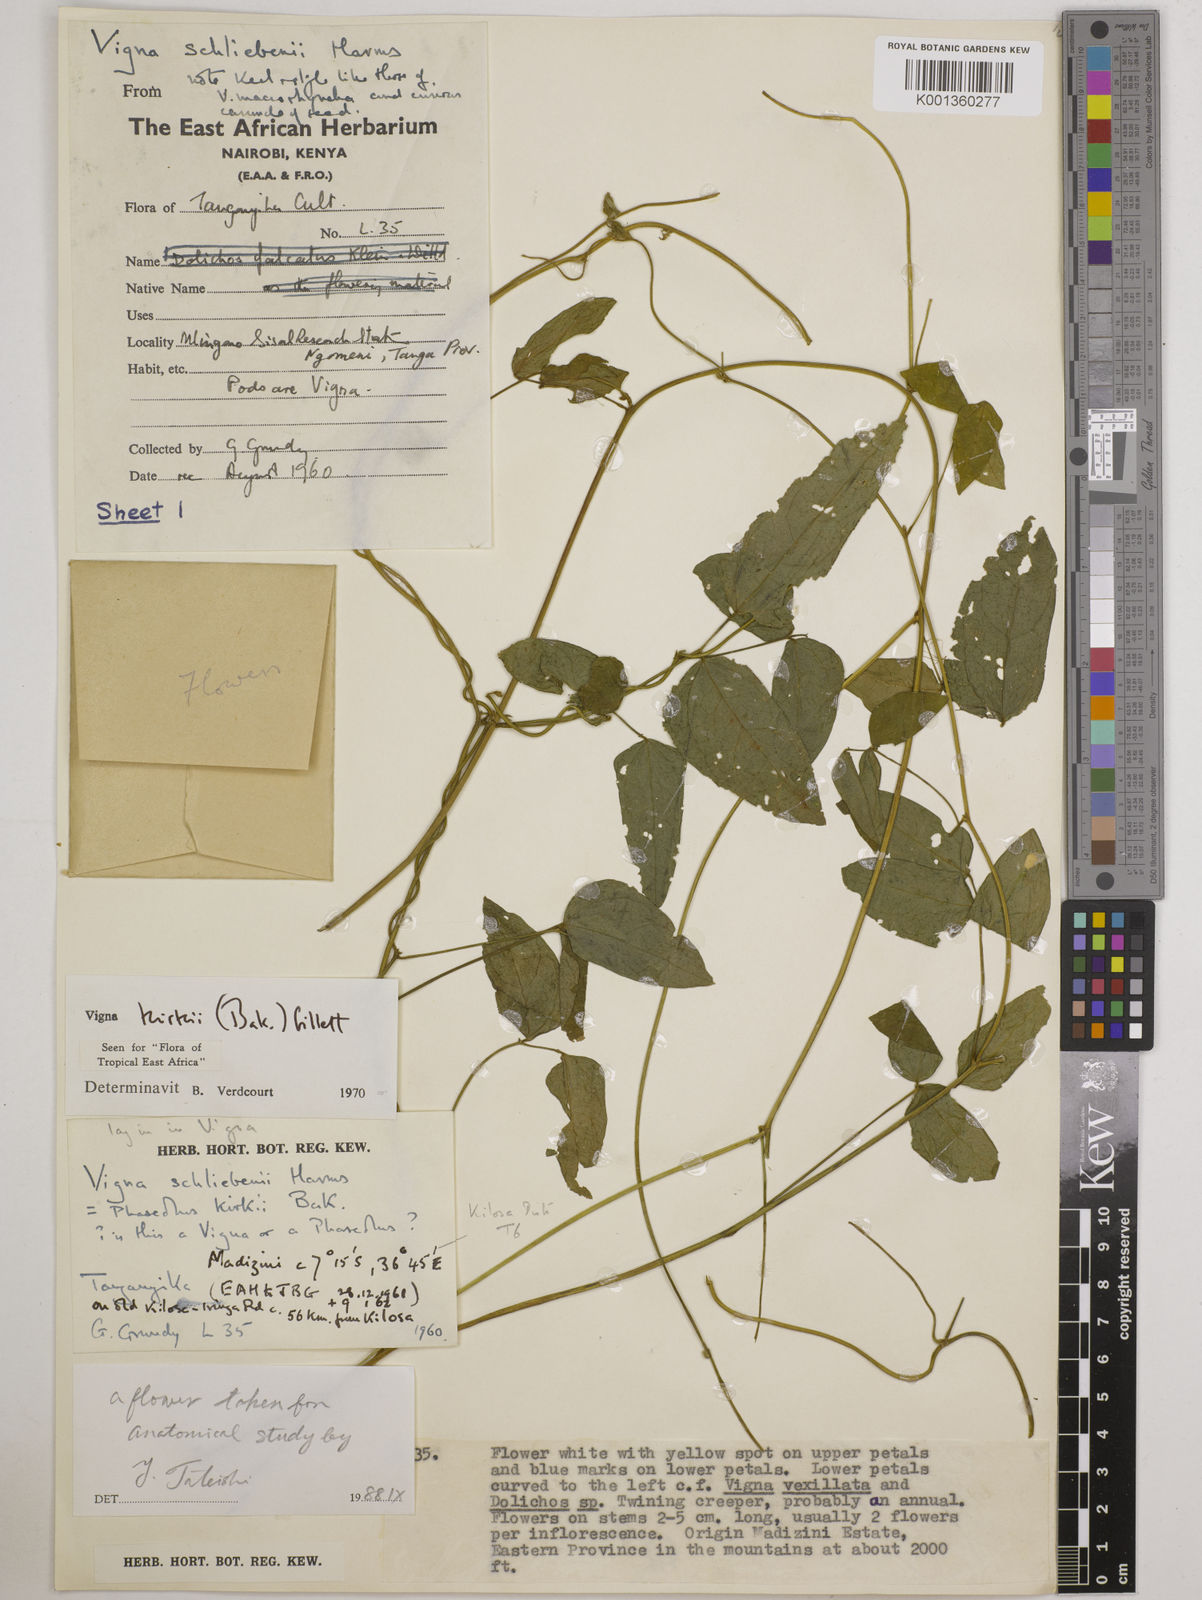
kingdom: Plantae
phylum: Tracheophyta
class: Magnoliopsida
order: Fabales
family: Fabaceae
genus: Vigna
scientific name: Vigna kirkii
